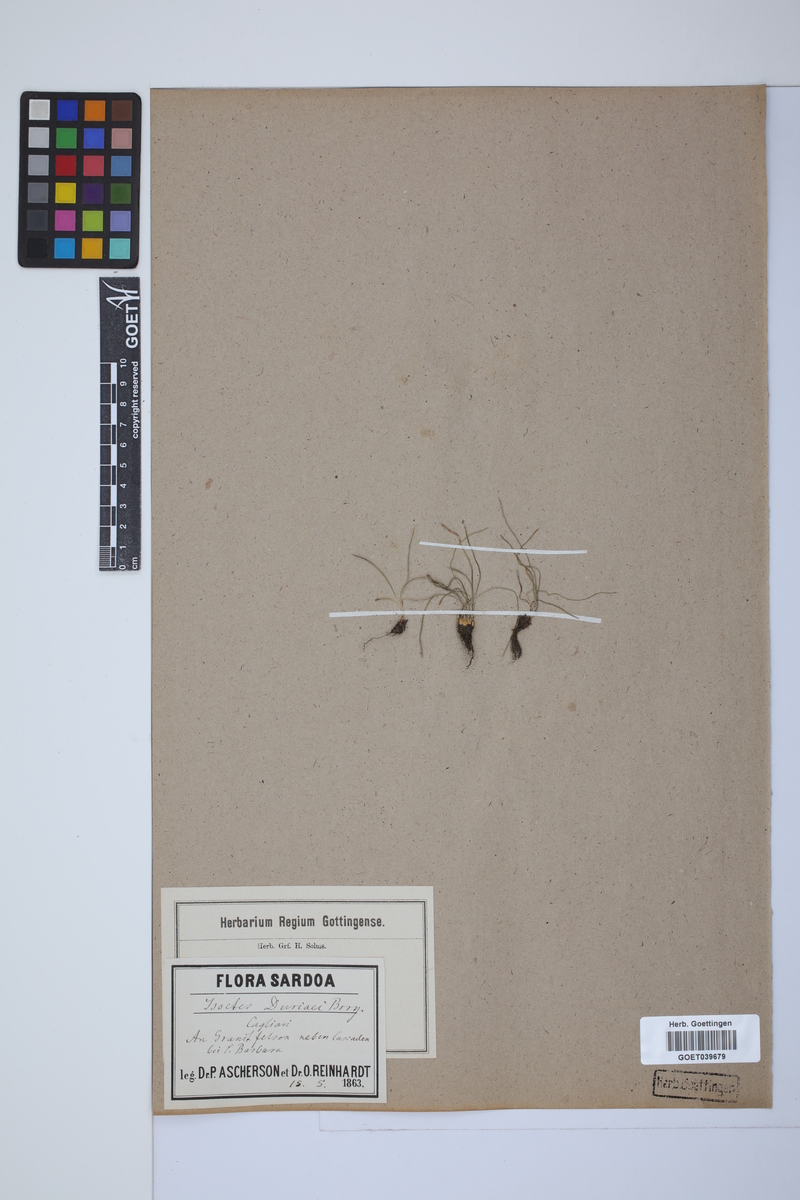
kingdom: Plantae
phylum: Tracheophyta
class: Lycopodiopsida
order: Isoetales
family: Isoetaceae
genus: Isoetes
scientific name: Isoetes duriei
